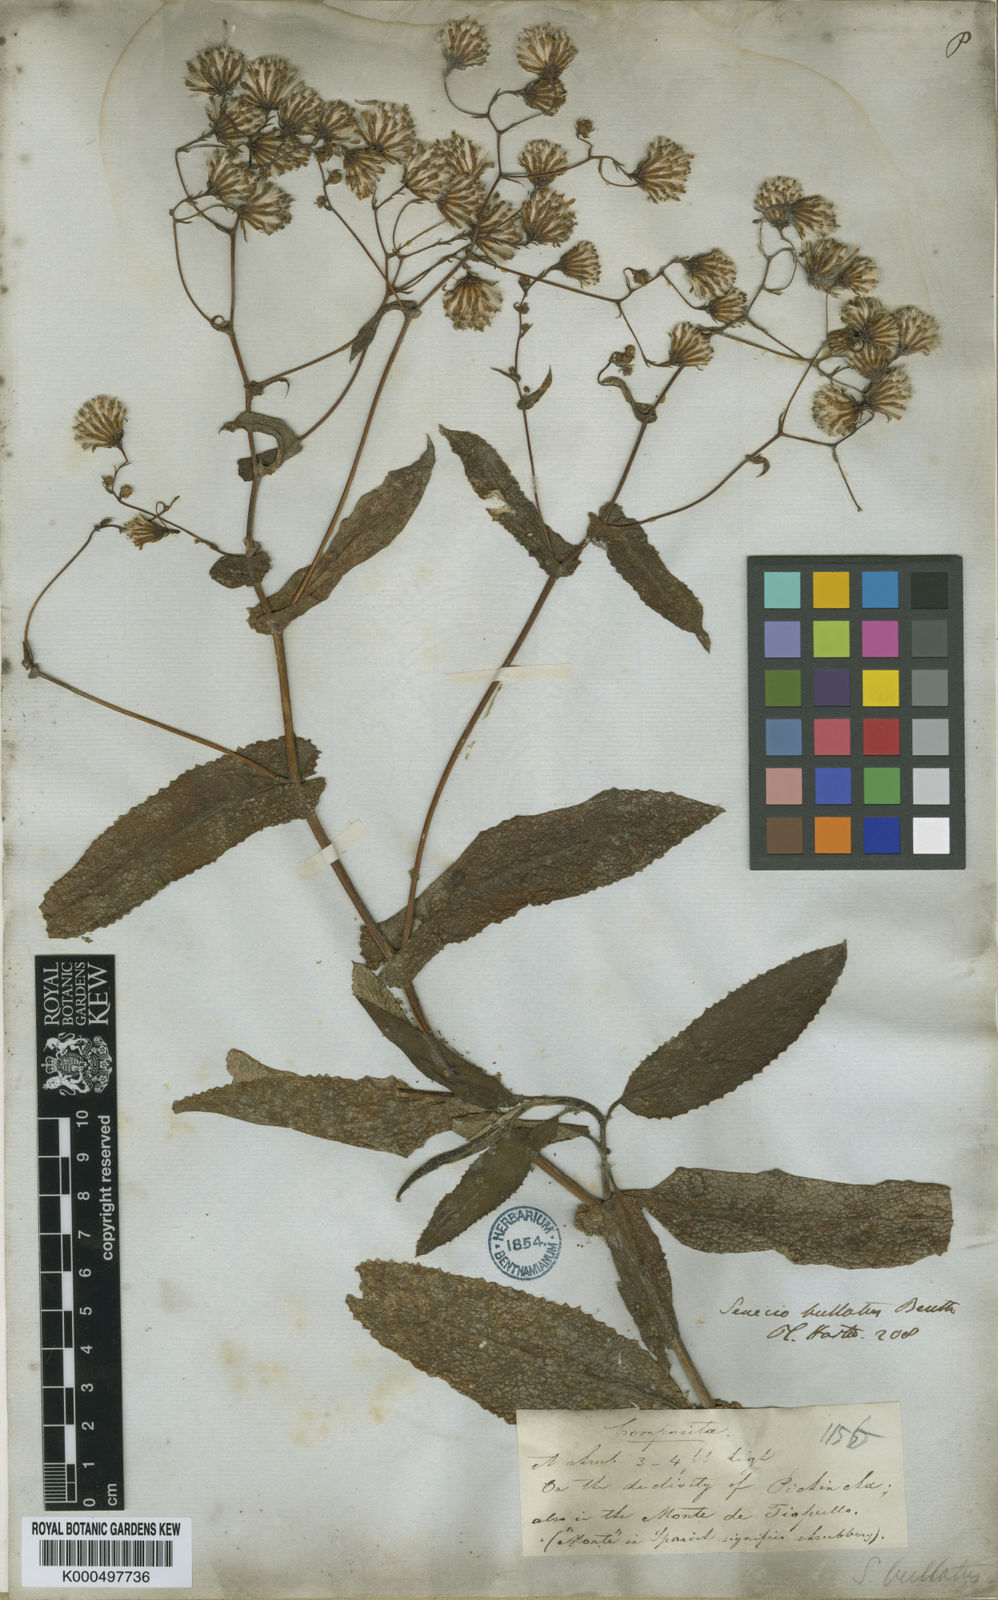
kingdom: Plantae
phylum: Tracheophyta
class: Magnoliopsida
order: Asterales
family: Asteraceae
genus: Aetheolaena
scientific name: Aetheolaena patens
